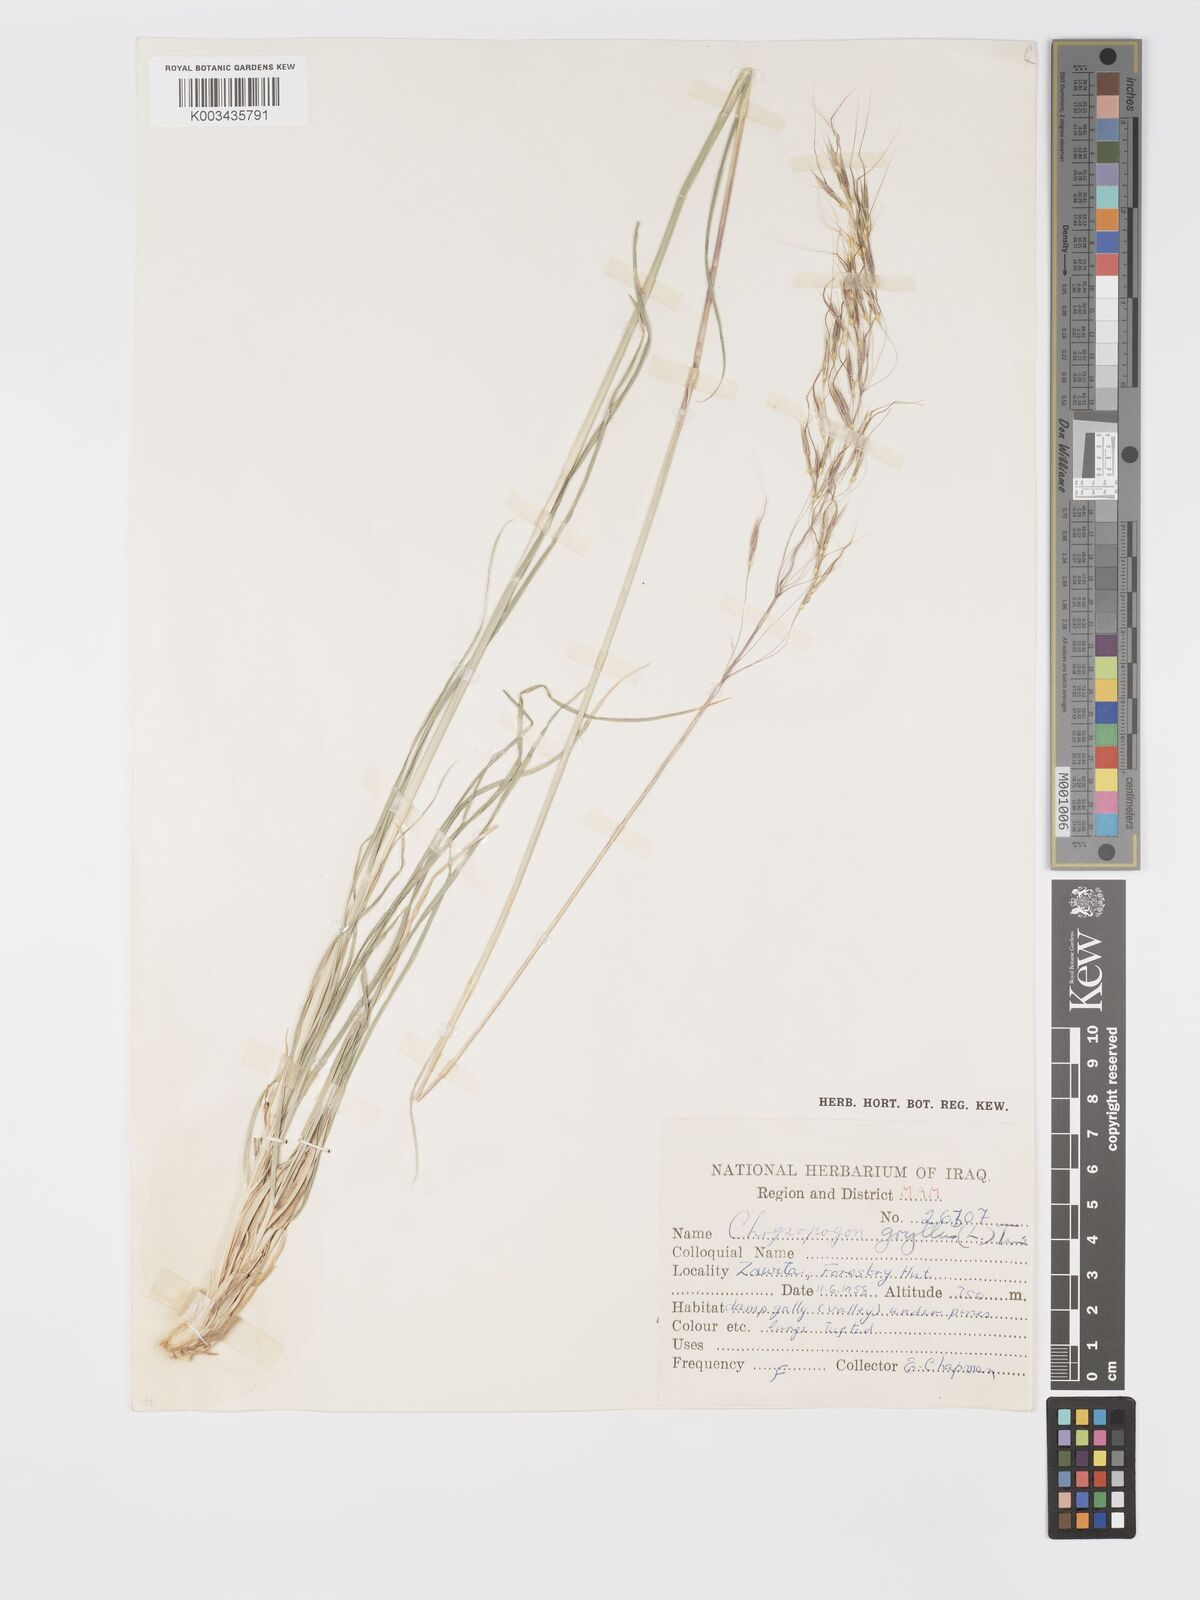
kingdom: Plantae
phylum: Tracheophyta
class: Liliopsida
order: Poales
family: Poaceae
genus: Chrysopogon
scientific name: Chrysopogon gryllus
